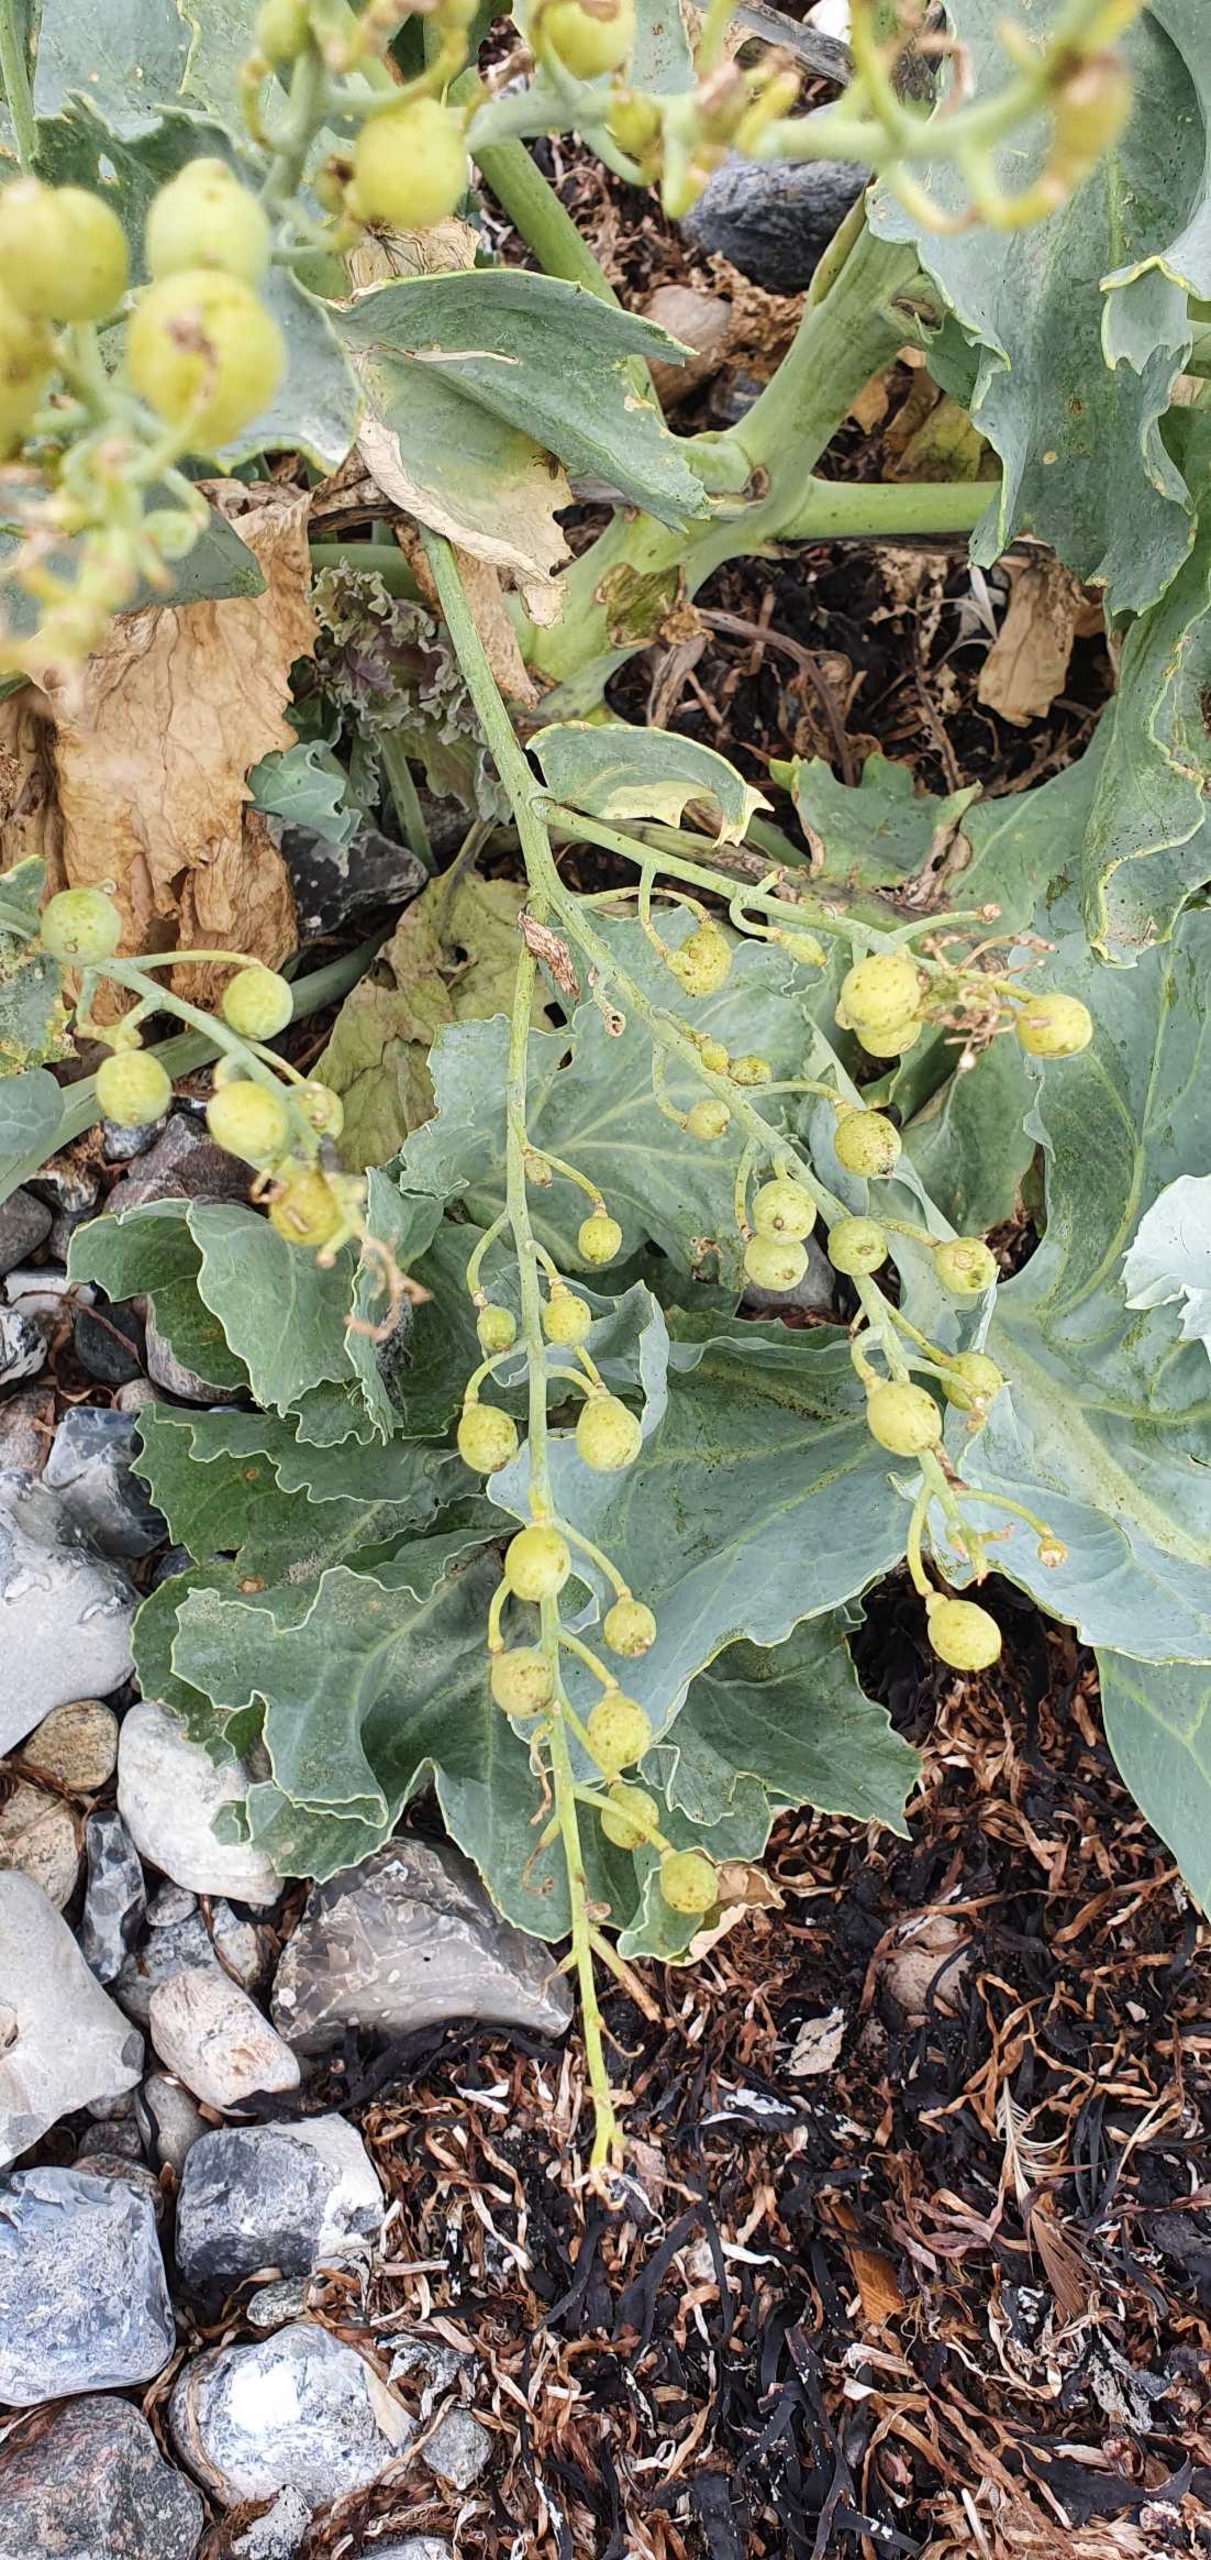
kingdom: Plantae
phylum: Tracheophyta
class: Magnoliopsida
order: Brassicales
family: Brassicaceae
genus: Crambe
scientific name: Crambe maritima
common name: Strandkål
